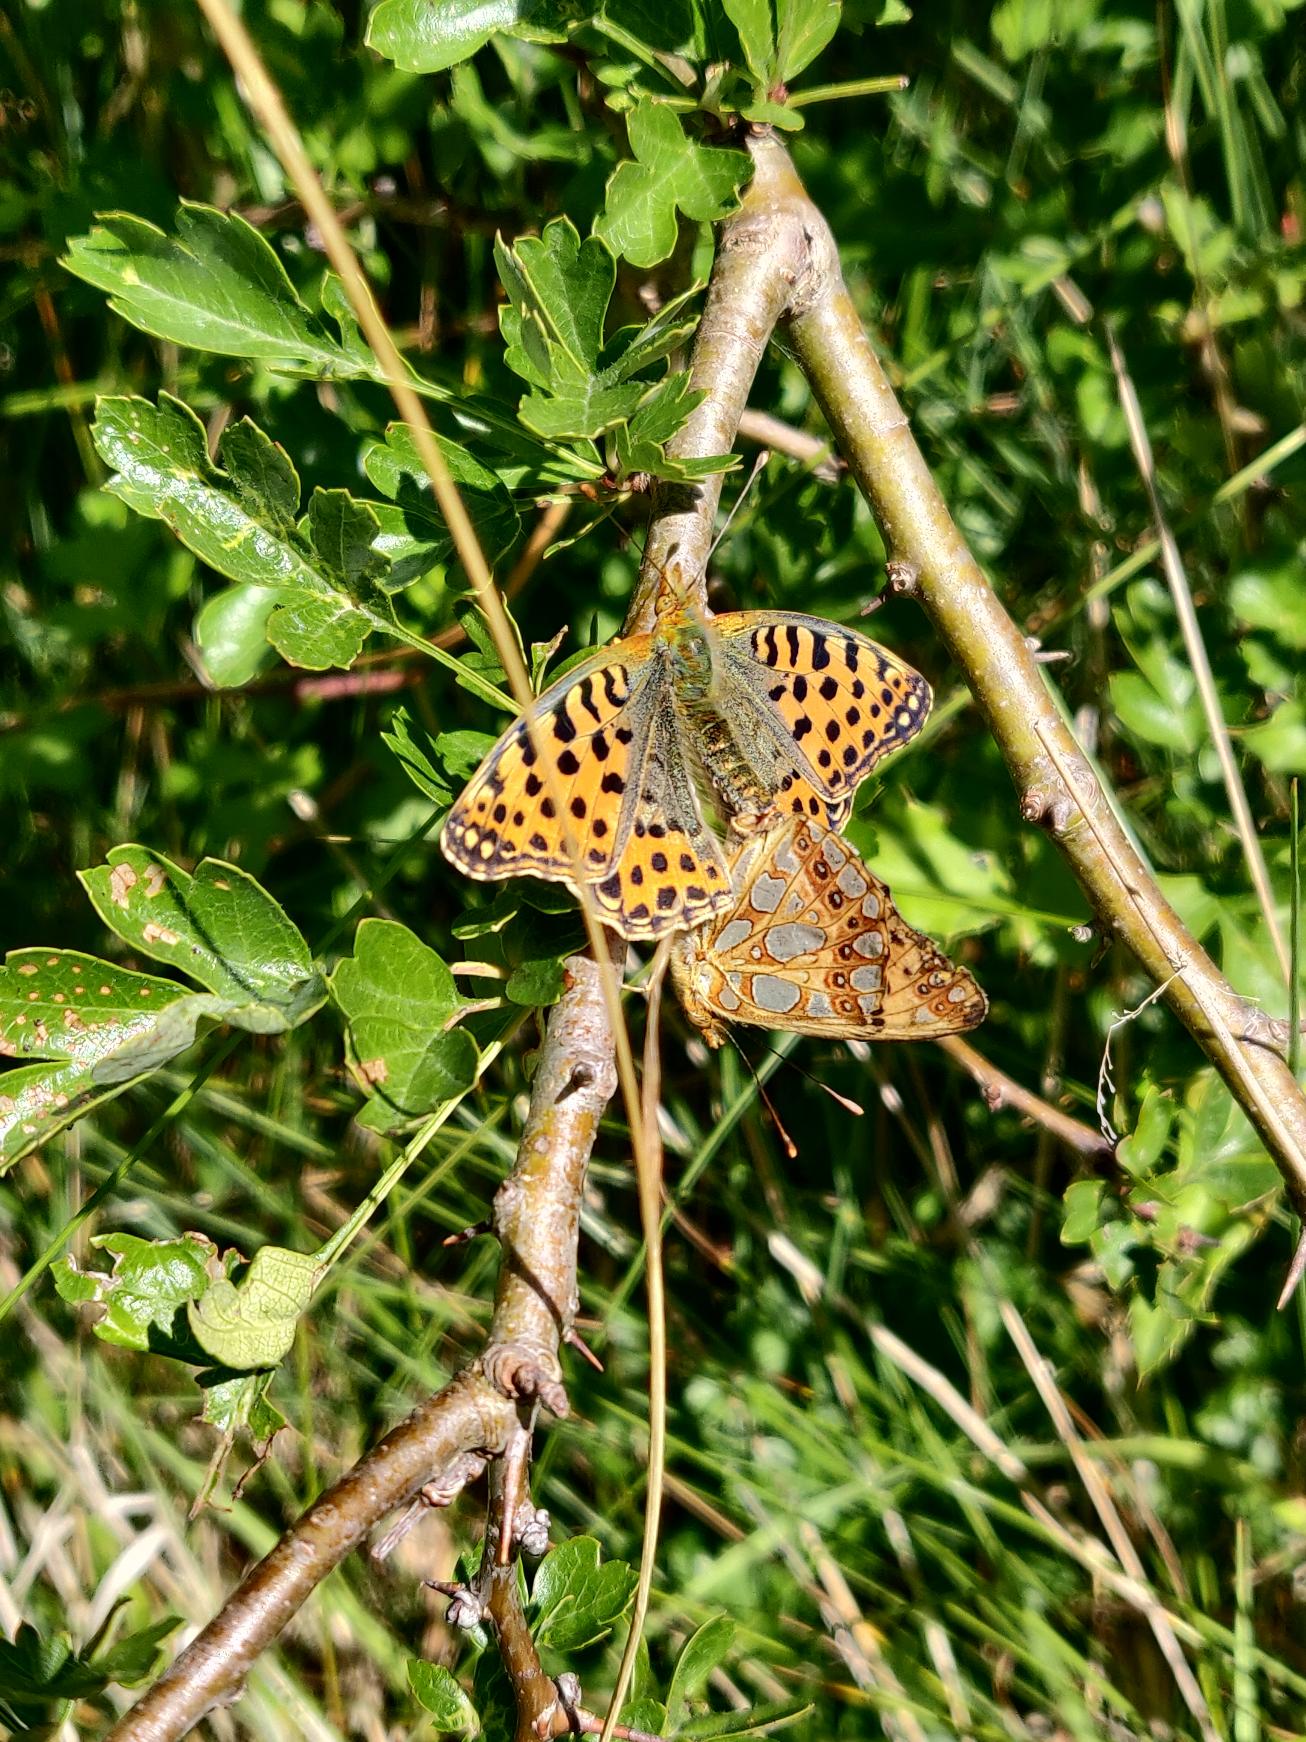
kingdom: Animalia
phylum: Arthropoda
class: Insecta
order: Lepidoptera
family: Nymphalidae
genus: Issoria
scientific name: Issoria lathonia
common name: Storplettet perlemorsommerfugl
